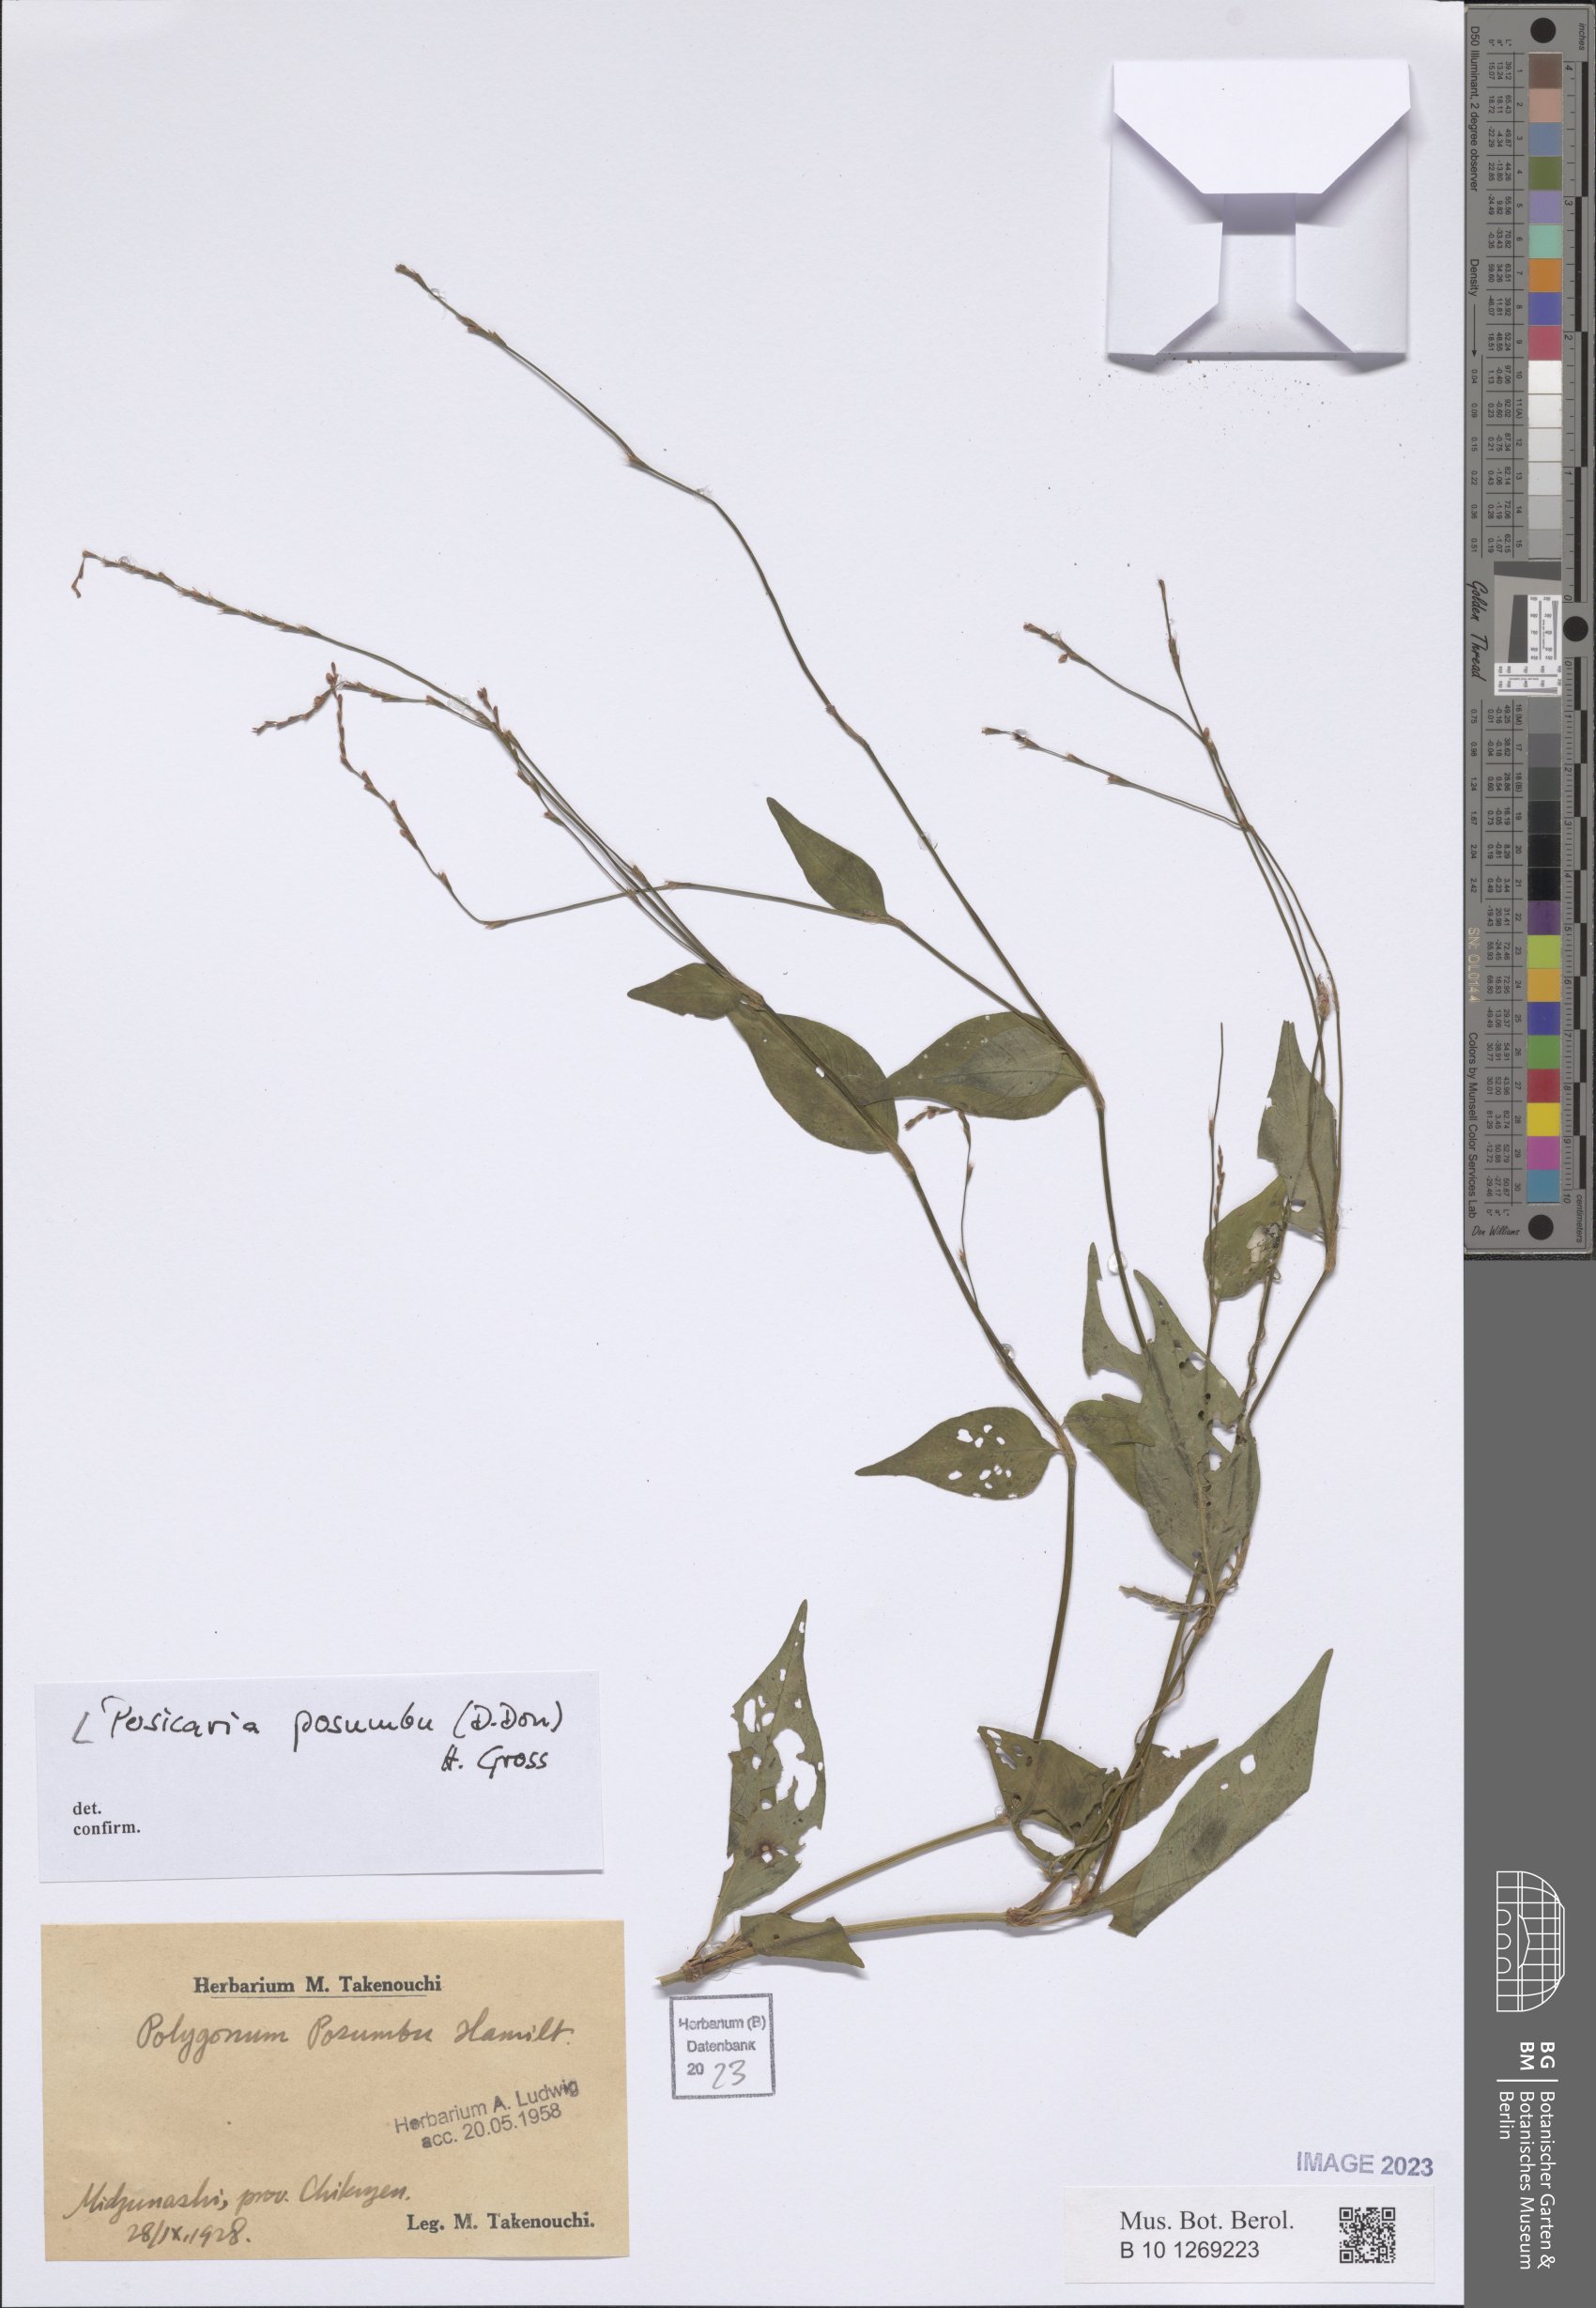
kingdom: Plantae
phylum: Tracheophyta
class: Magnoliopsida
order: Caryophyllales
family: Polygonaceae
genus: Persicaria
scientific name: Persicaria posumbu
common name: Oriental lady's thumb
